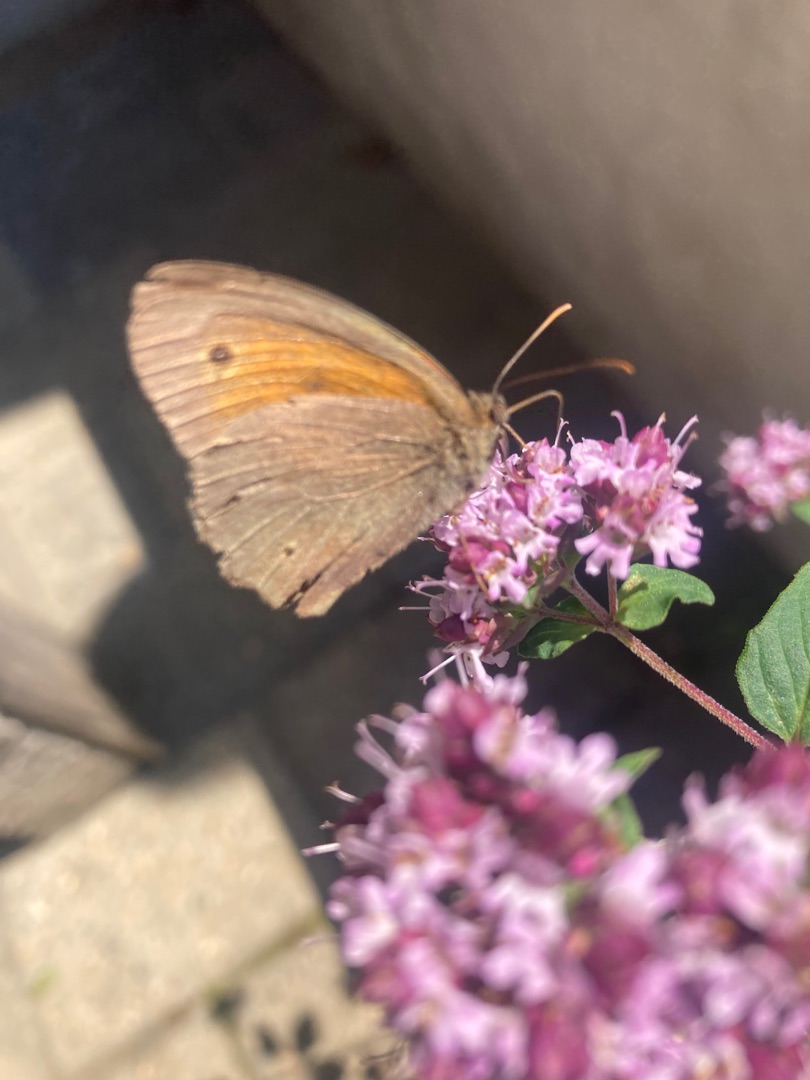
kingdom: Animalia
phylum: Arthropoda
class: Insecta
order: Lepidoptera
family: Nymphalidae
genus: Maniola
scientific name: Maniola jurtina
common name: Græsrandøje
